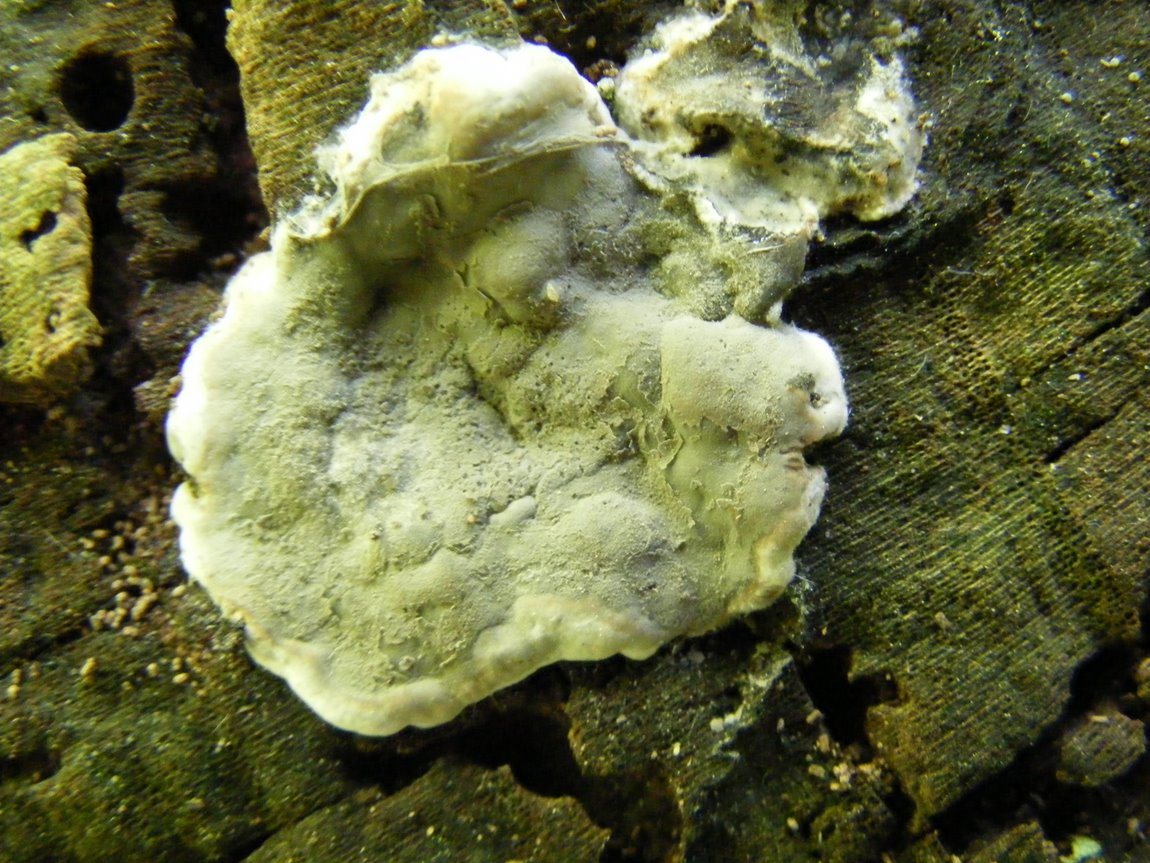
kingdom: Fungi
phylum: Ascomycota
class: Sordariomycetes
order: Xylariales
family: Xylariaceae
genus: Kretzschmaria
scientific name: Kretzschmaria deusta
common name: stor kulsvamp
